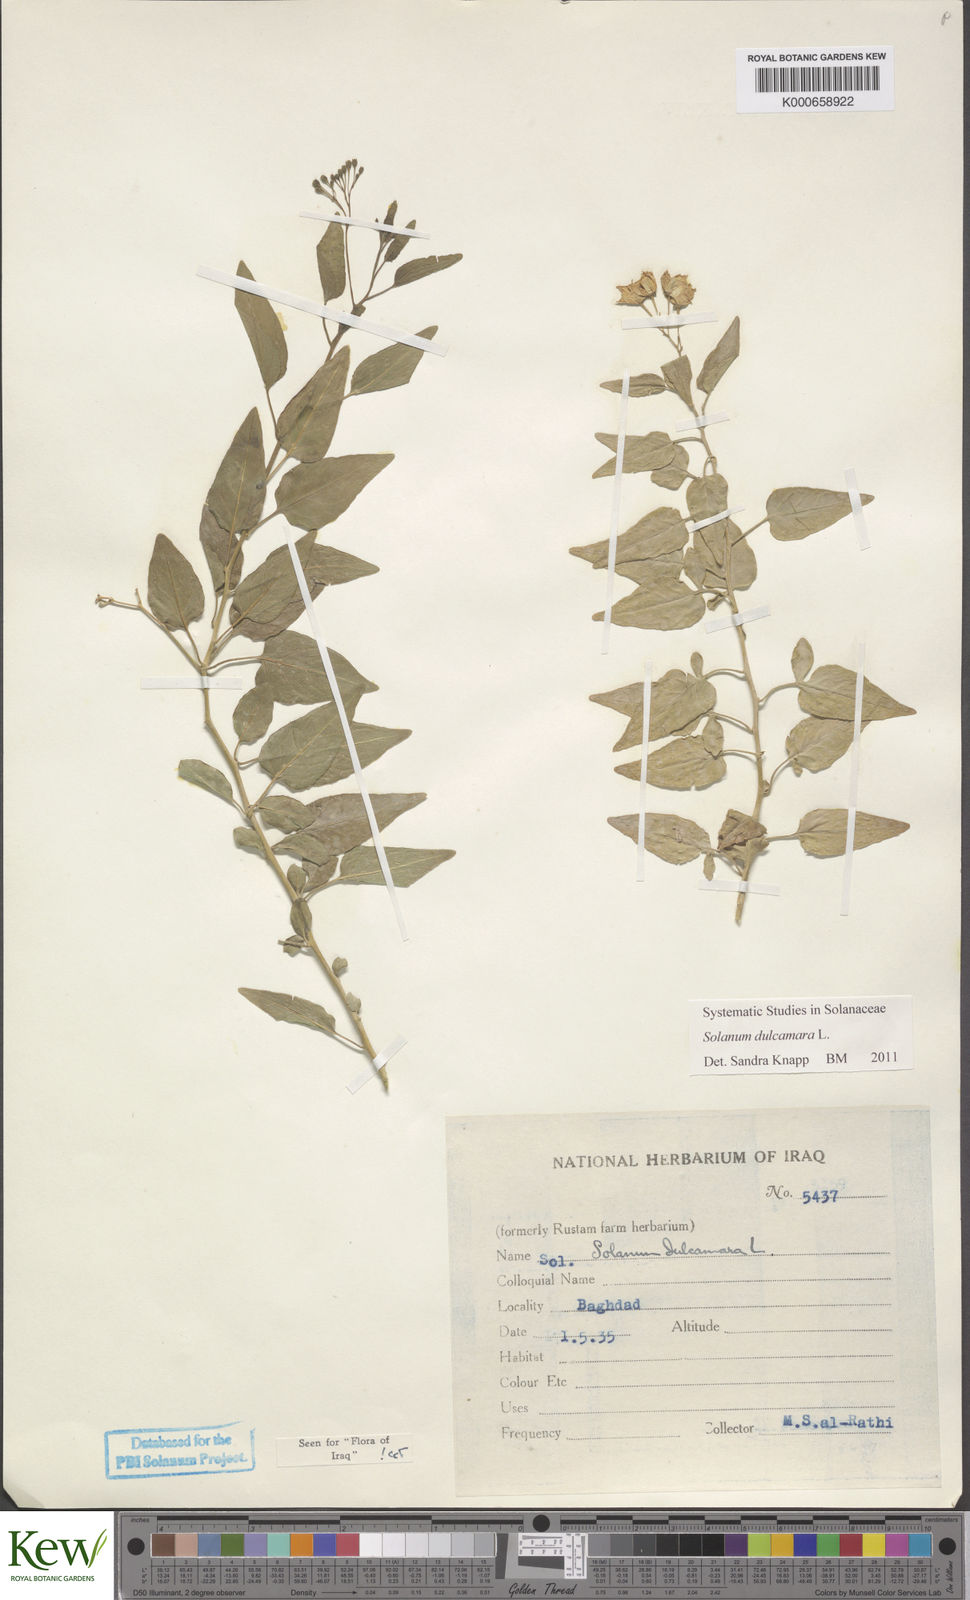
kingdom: Plantae
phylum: Tracheophyta
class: Magnoliopsida
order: Solanales
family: Solanaceae
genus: Solanum
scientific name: Solanum dulcamara
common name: Climbing nightshade
